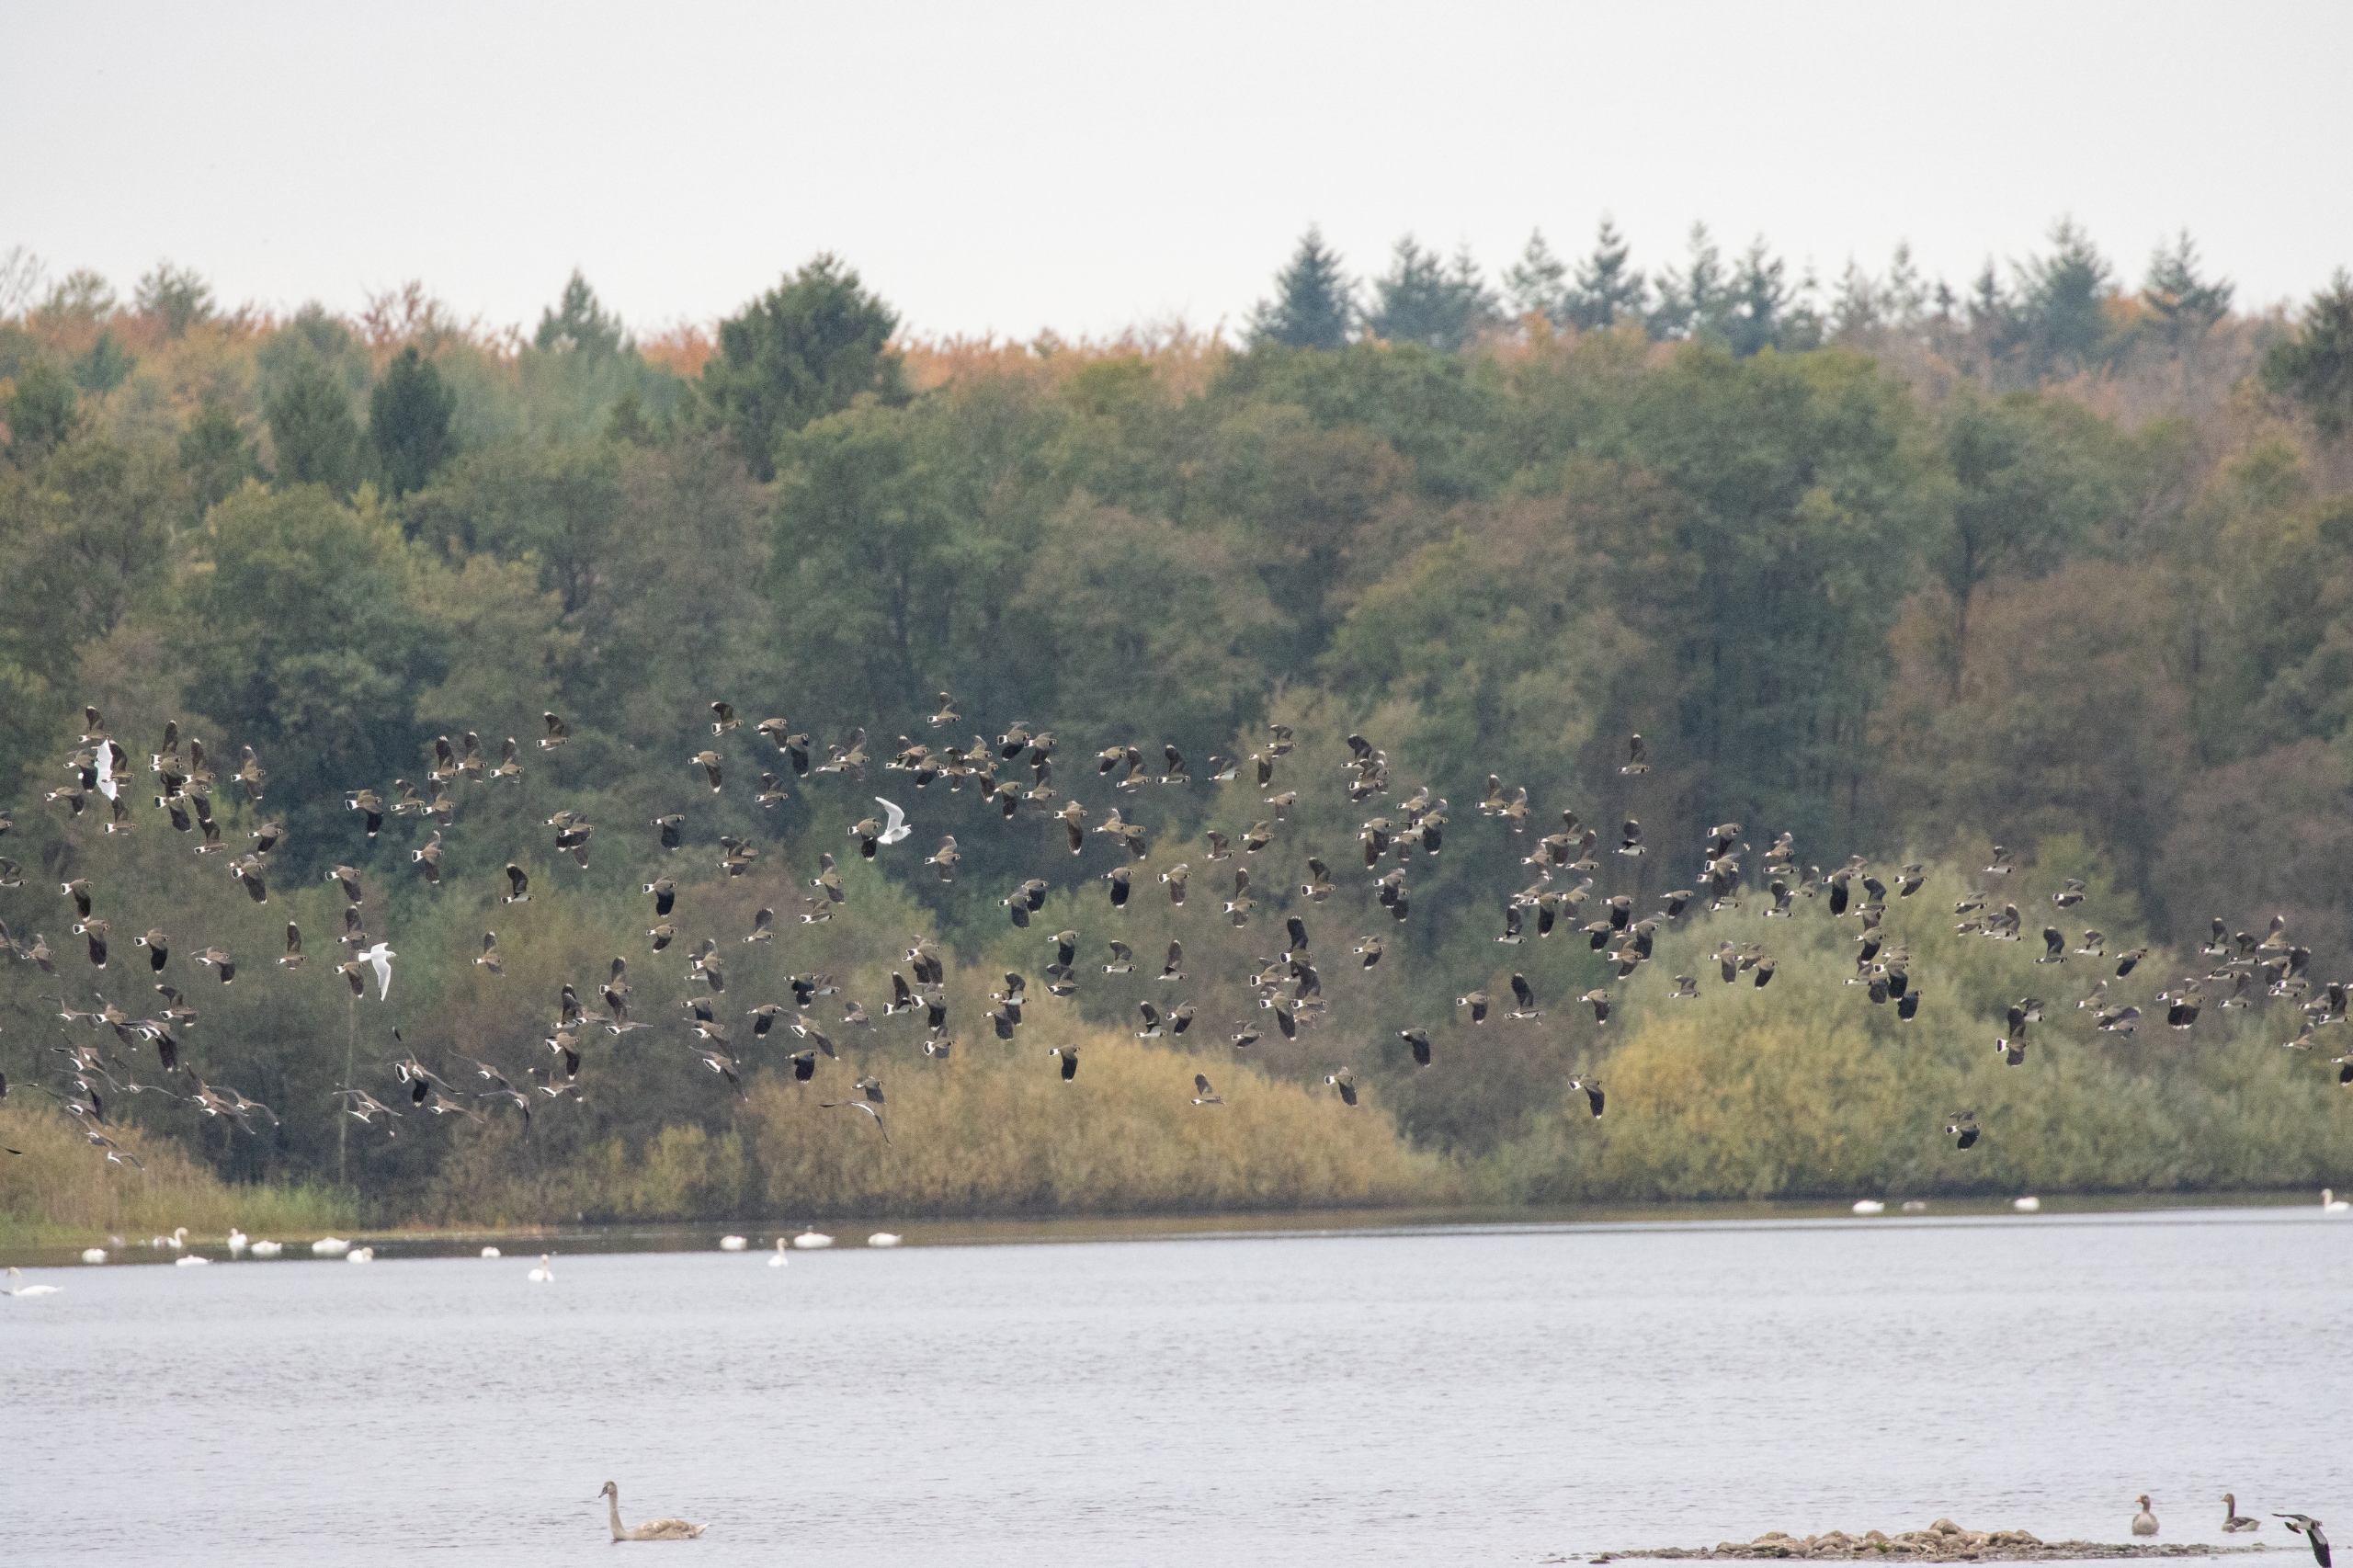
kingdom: Animalia
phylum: Chordata
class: Aves
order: Charadriiformes
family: Charadriidae
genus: Vanellus
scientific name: Vanellus vanellus
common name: Vibe
